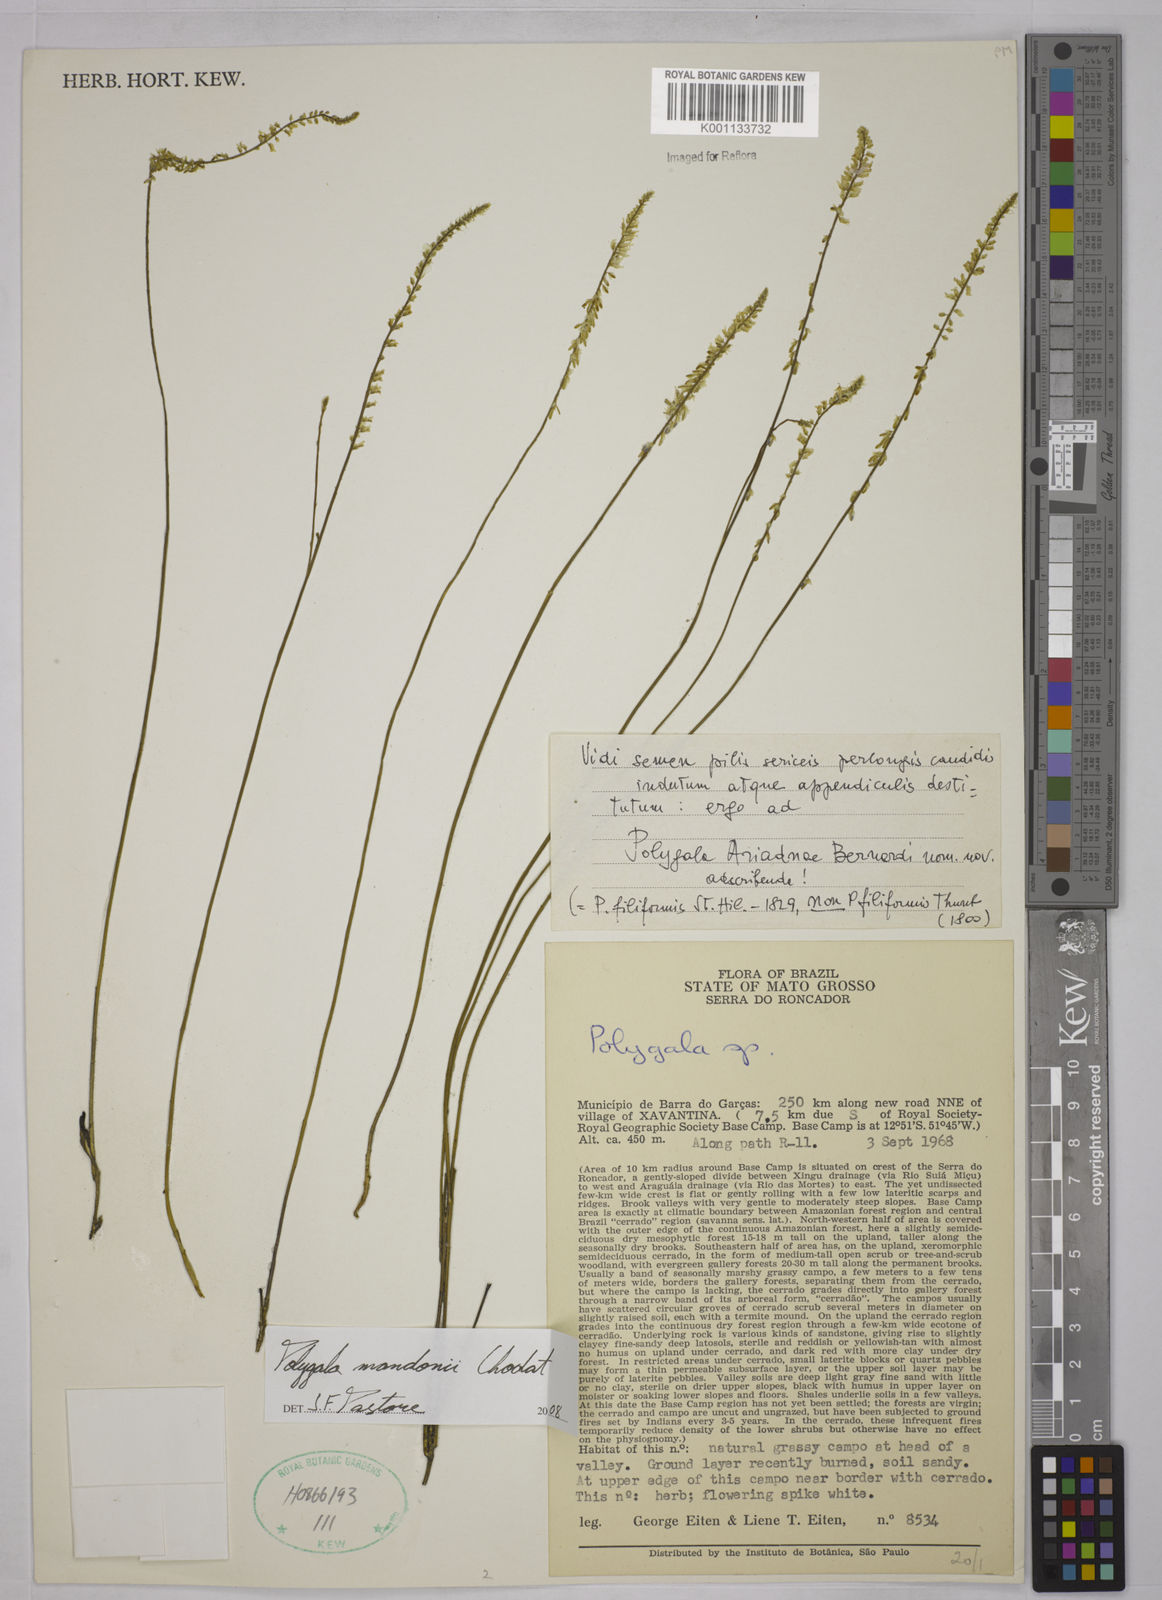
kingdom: Plantae
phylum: Tracheophyta
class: Magnoliopsida
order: Fabales
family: Polygalaceae
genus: Polygala
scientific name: Polygala mandonii
